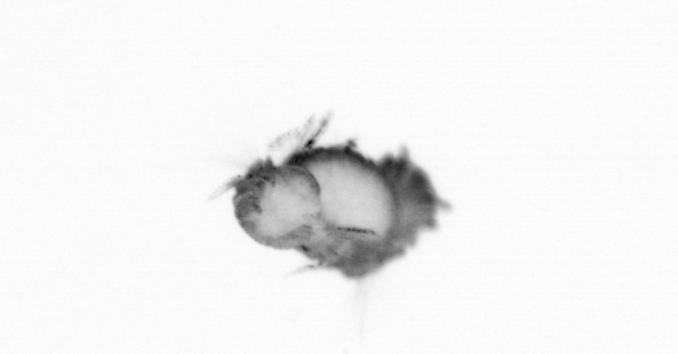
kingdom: Animalia
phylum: Annelida
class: Polychaeta
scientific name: Polychaeta
